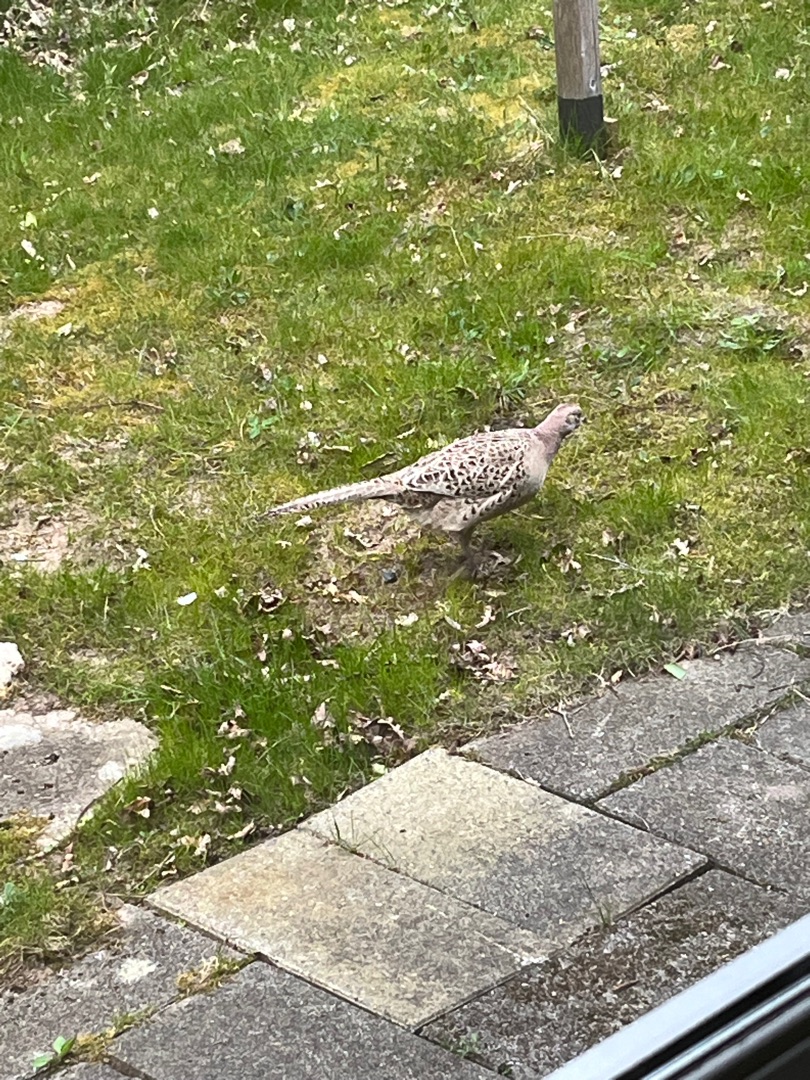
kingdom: Animalia
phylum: Chordata
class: Aves
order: Galliformes
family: Phasianidae
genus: Phasianus
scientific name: Phasianus colchicus
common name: Fasan
